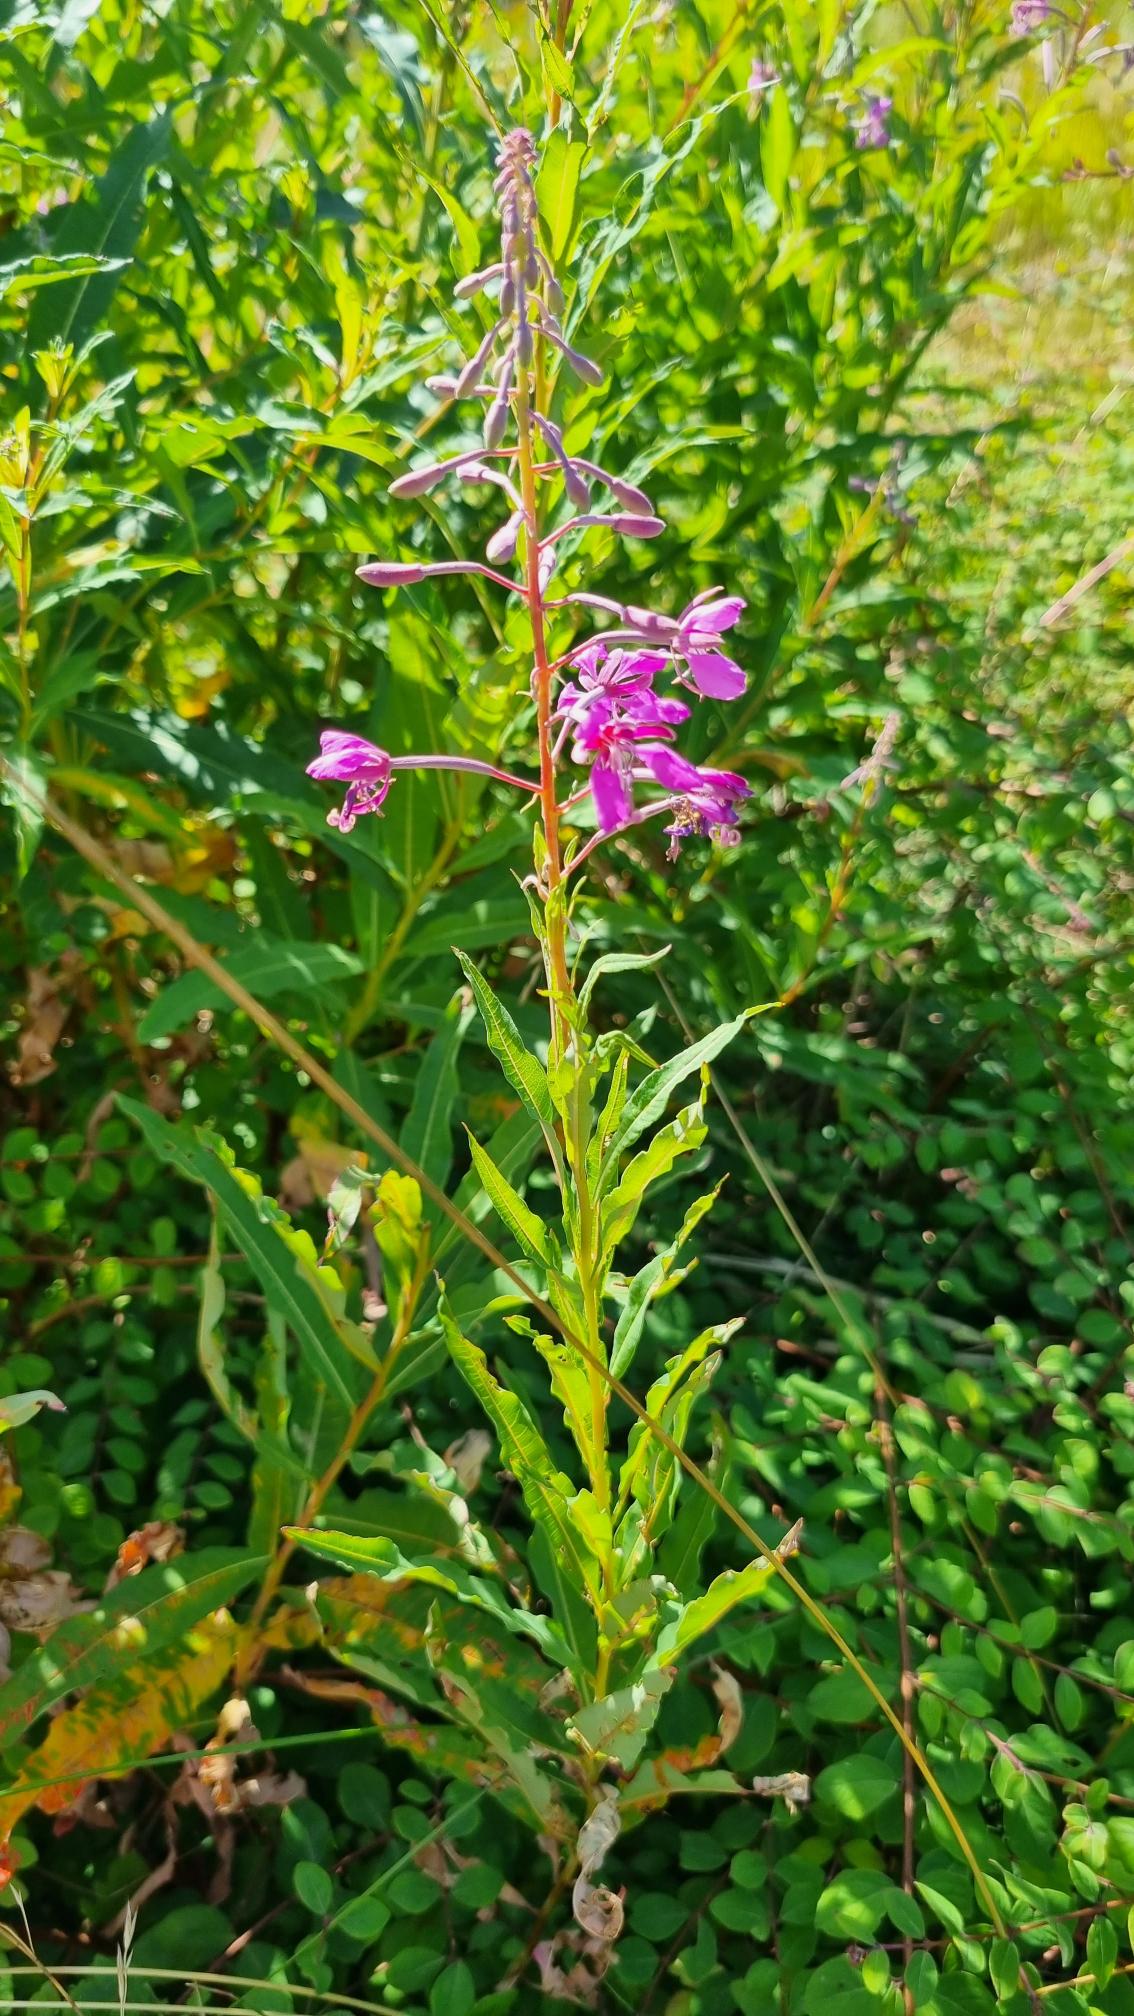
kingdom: Plantae
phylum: Tracheophyta
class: Magnoliopsida
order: Myrtales
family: Onagraceae
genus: Chamaenerion
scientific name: Chamaenerion angustifolium
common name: Gederams
